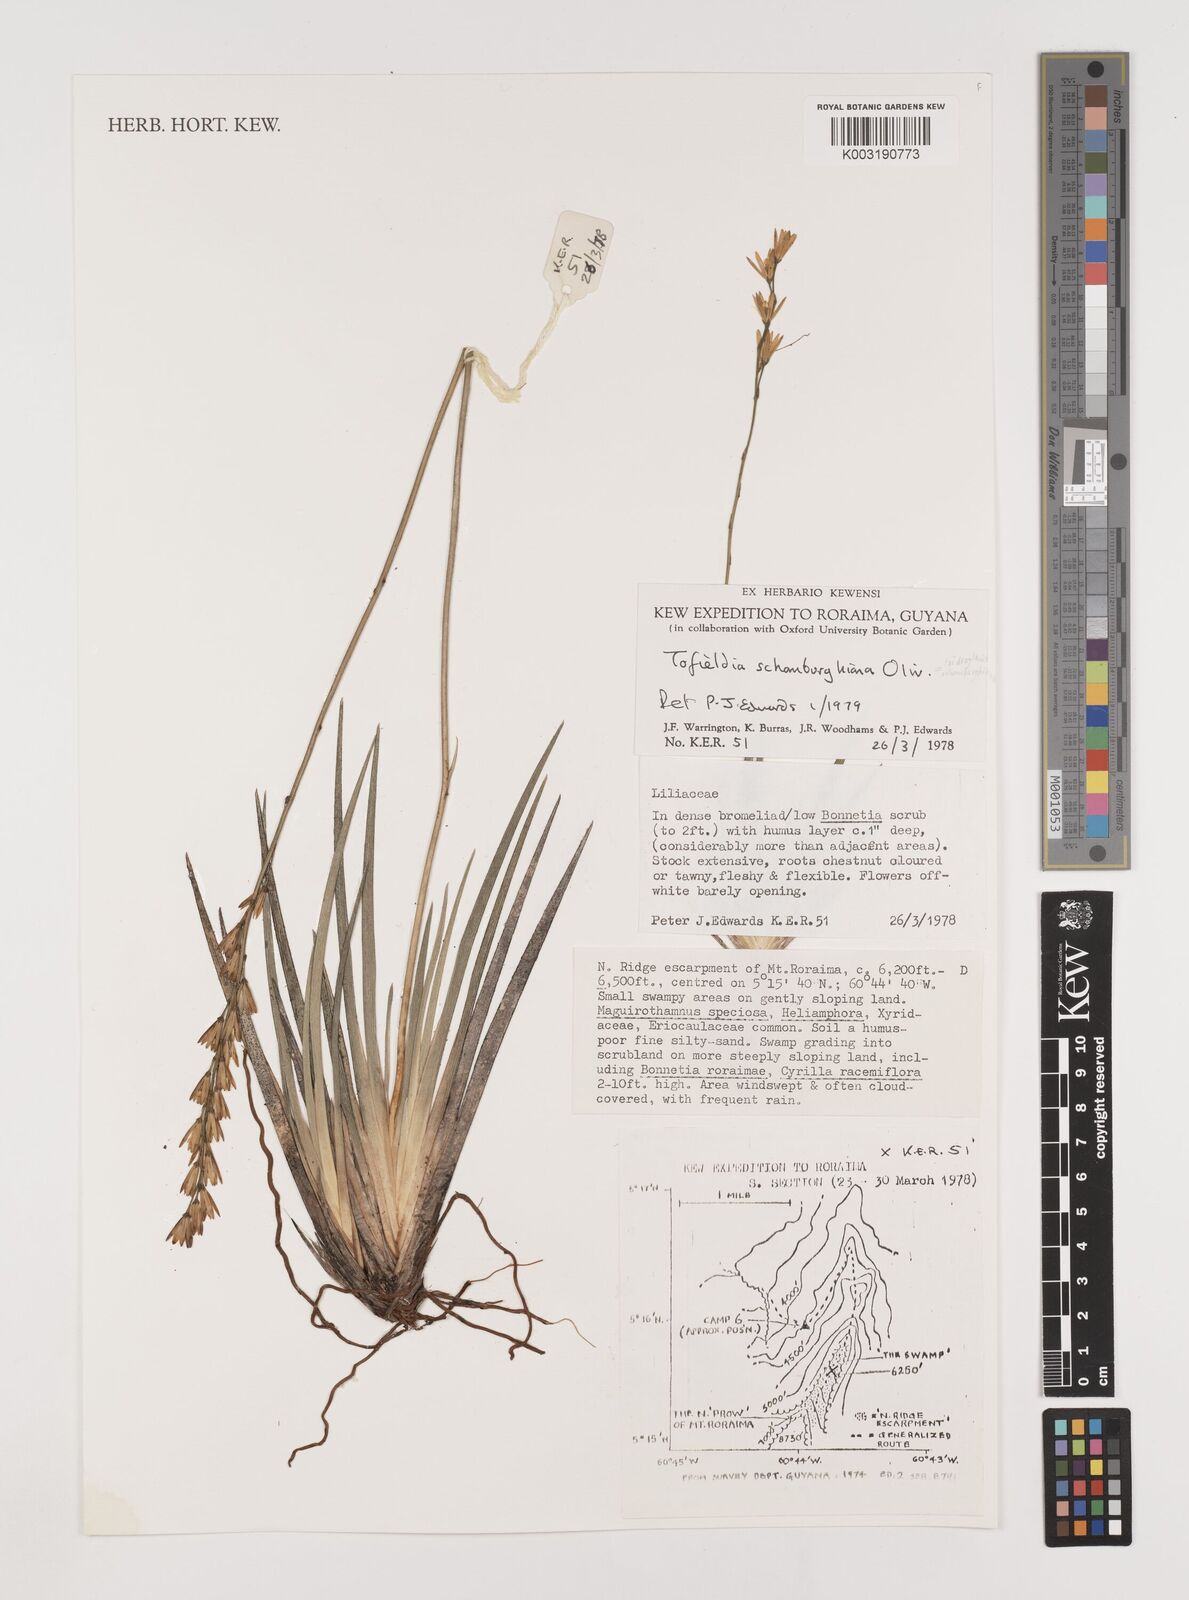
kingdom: Plantae
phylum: Tracheophyta
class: Liliopsida
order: Alismatales
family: Tofieldiaceae
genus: Harperocallis
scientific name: Harperocallis schomburgkiana
